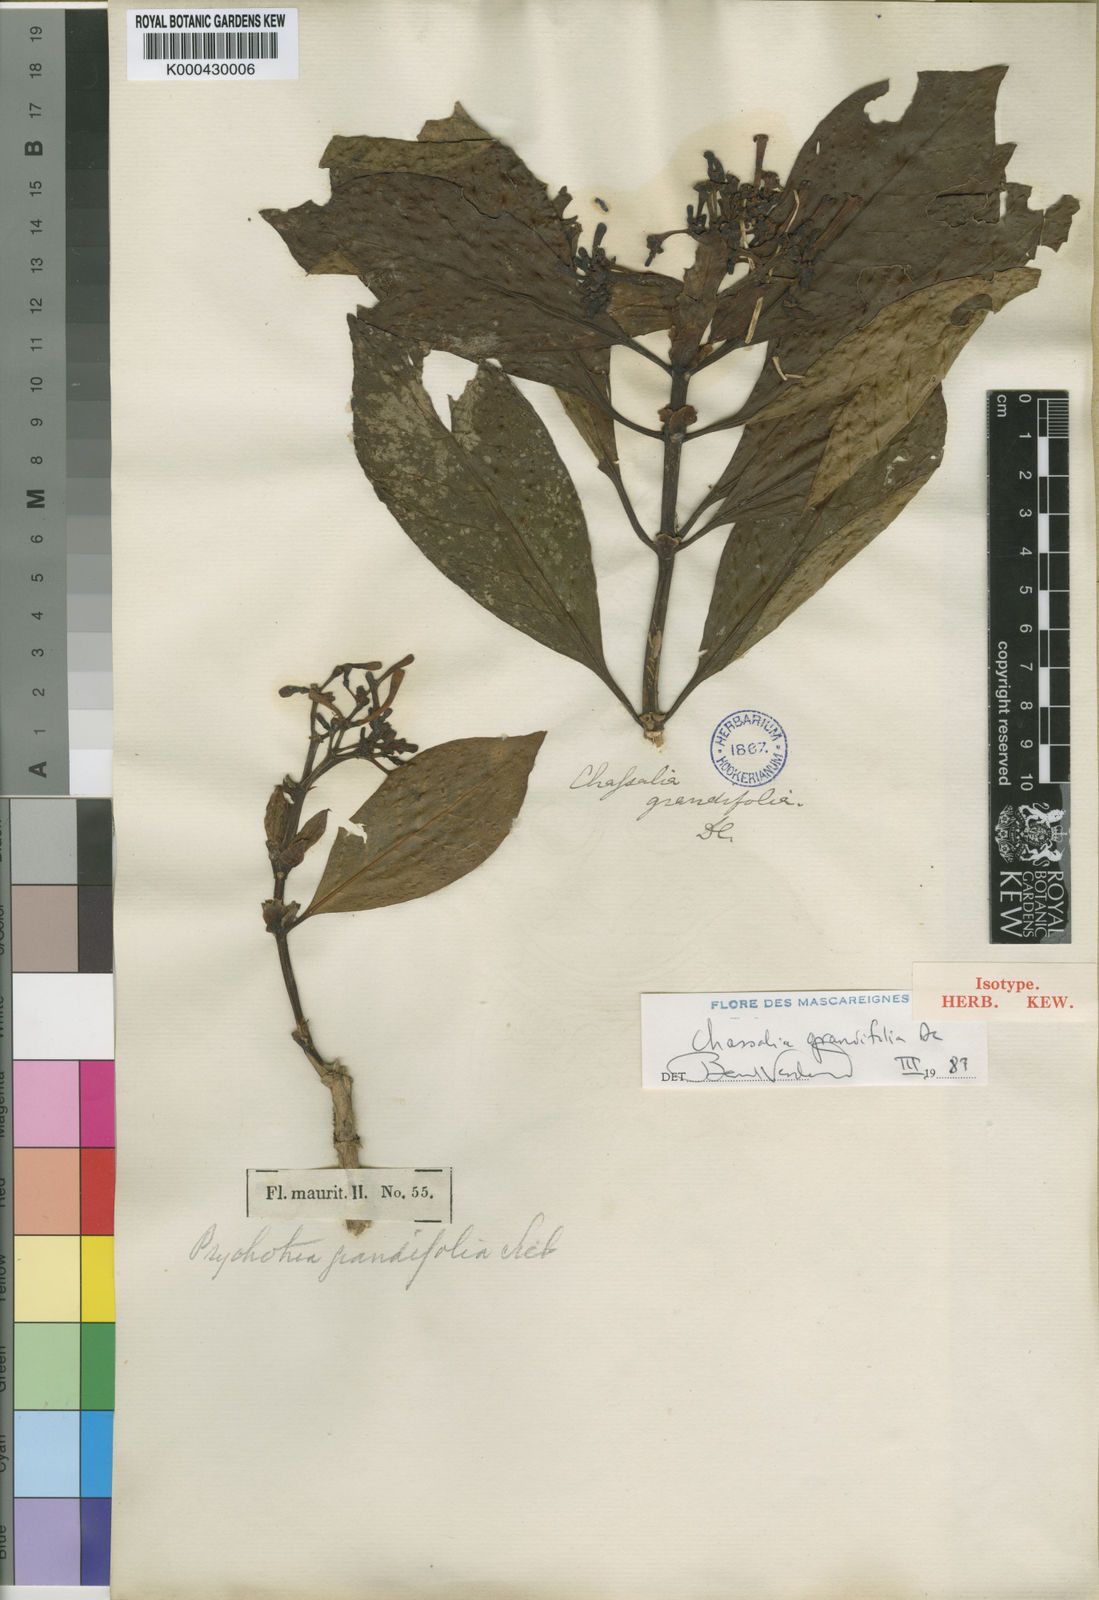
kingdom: Plantae
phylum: Tracheophyta
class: Magnoliopsida
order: Gentianales
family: Rubiaceae
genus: Chassalia
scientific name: Chassalia grandifolia
